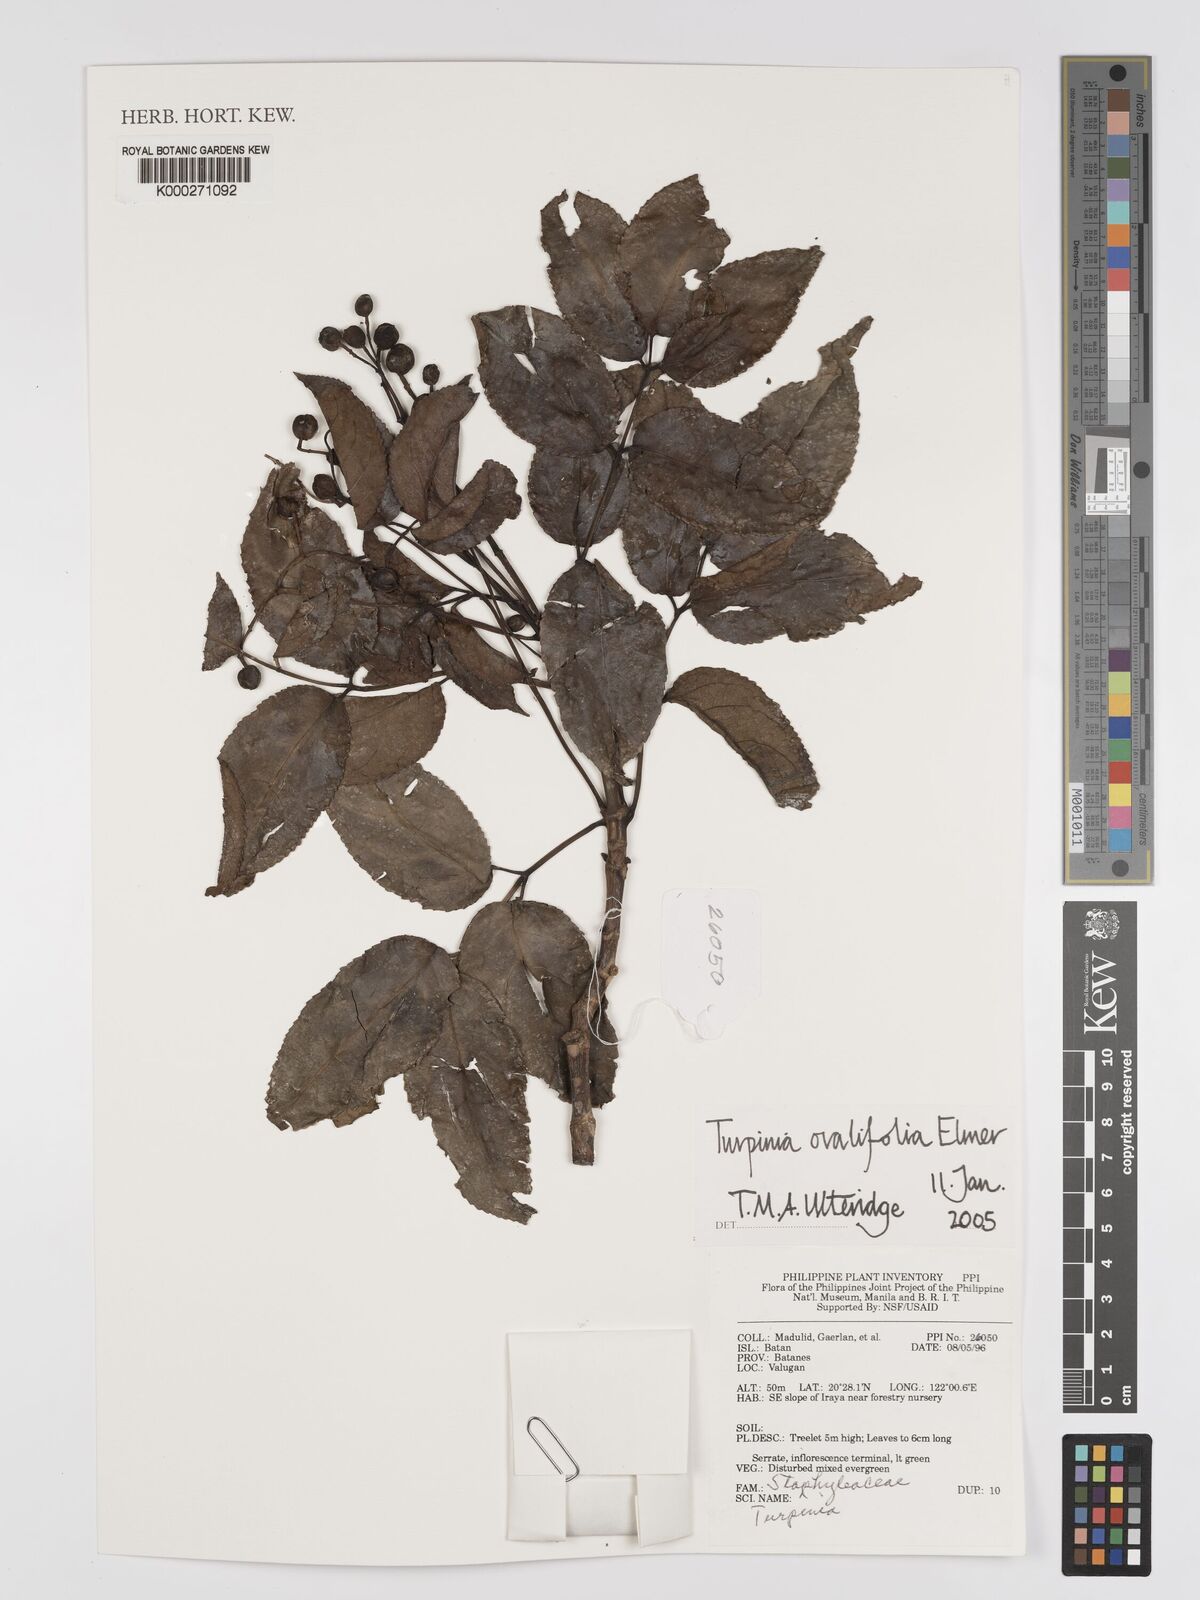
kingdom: Plantae
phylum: Tracheophyta
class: Magnoliopsida
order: Crossosomatales
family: Staphyleaceae
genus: Dalrympelea
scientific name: Dalrympelea trifoliata
